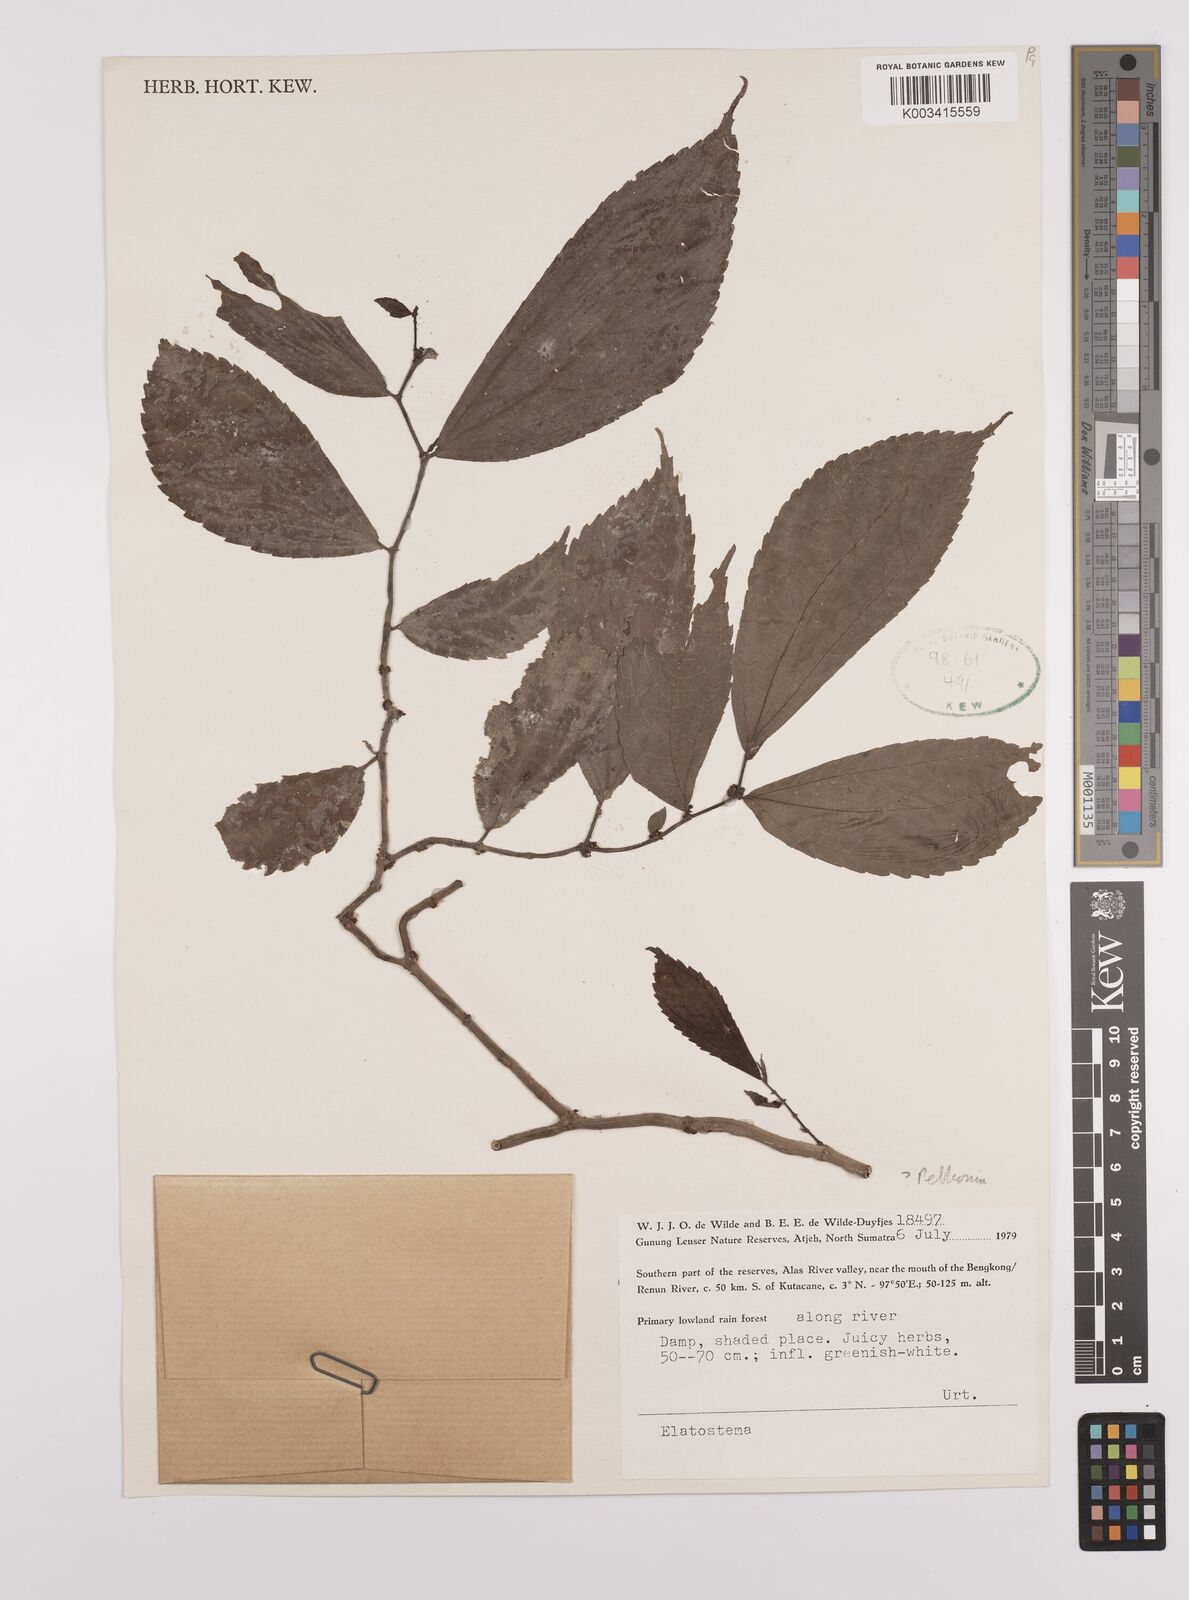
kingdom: Plantae
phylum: Tracheophyta
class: Magnoliopsida
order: Rosales
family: Urticaceae
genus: Elatostema
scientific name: Elatostema
